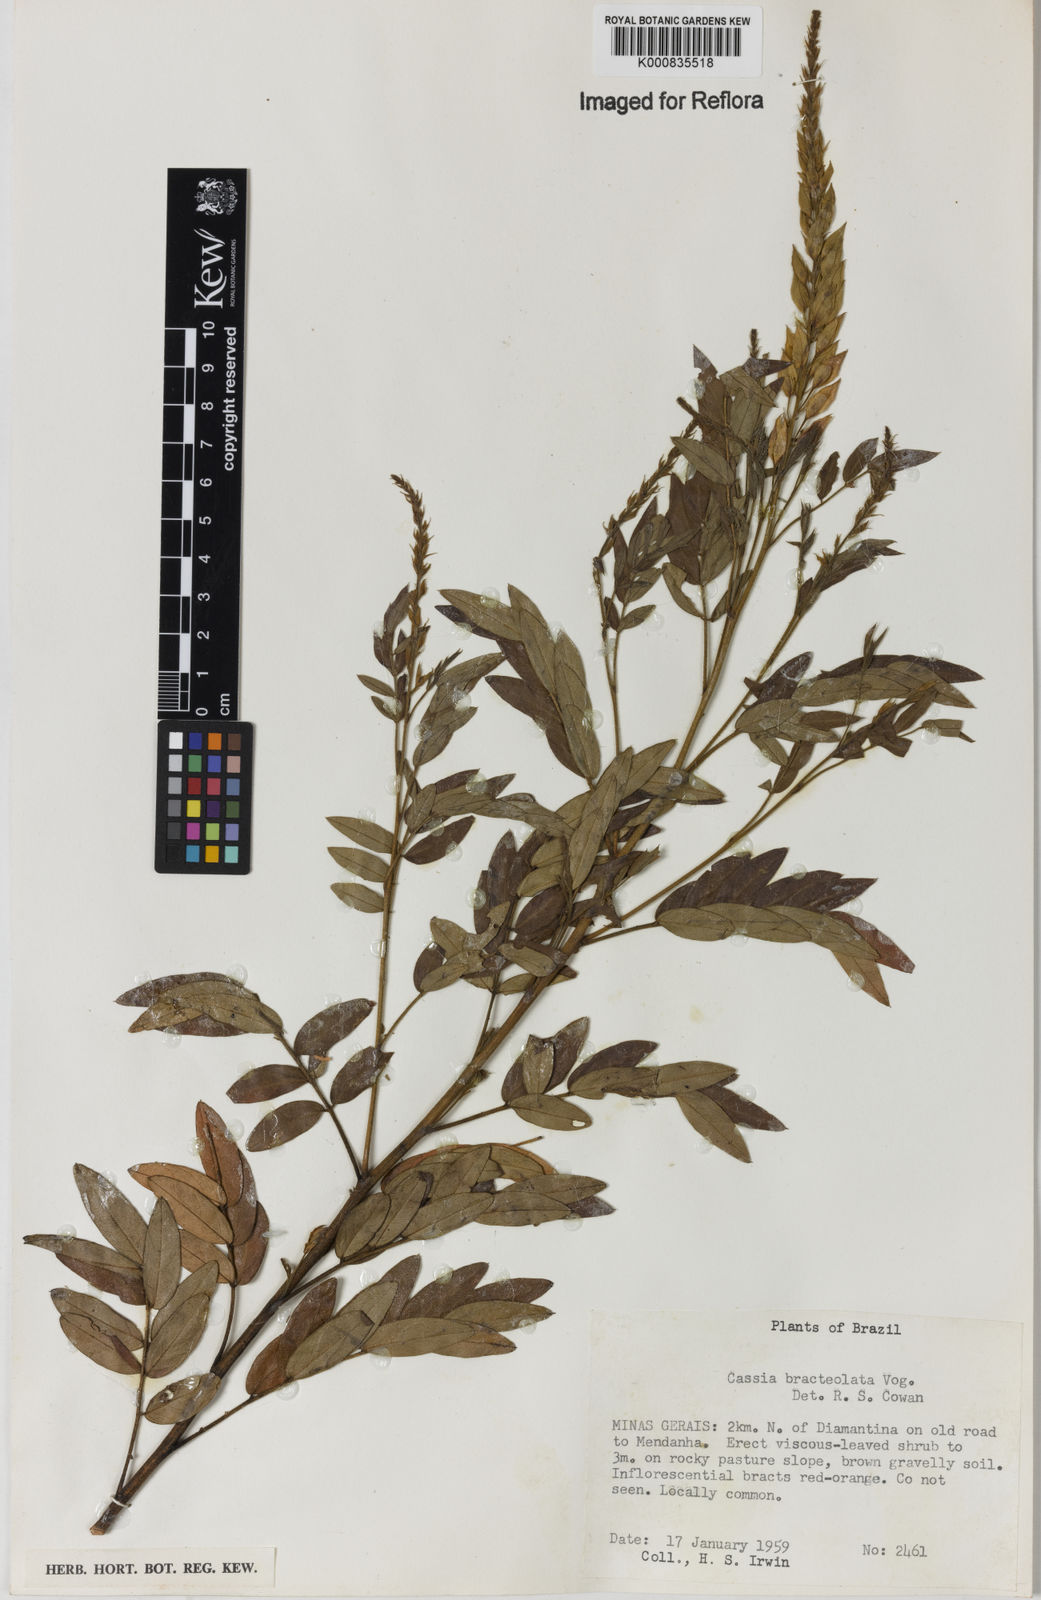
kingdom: Plantae
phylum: Tracheophyta
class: Magnoliopsida
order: Fabales
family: Fabaceae
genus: Chamaecrista
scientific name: Chamaecrista bracteolata
